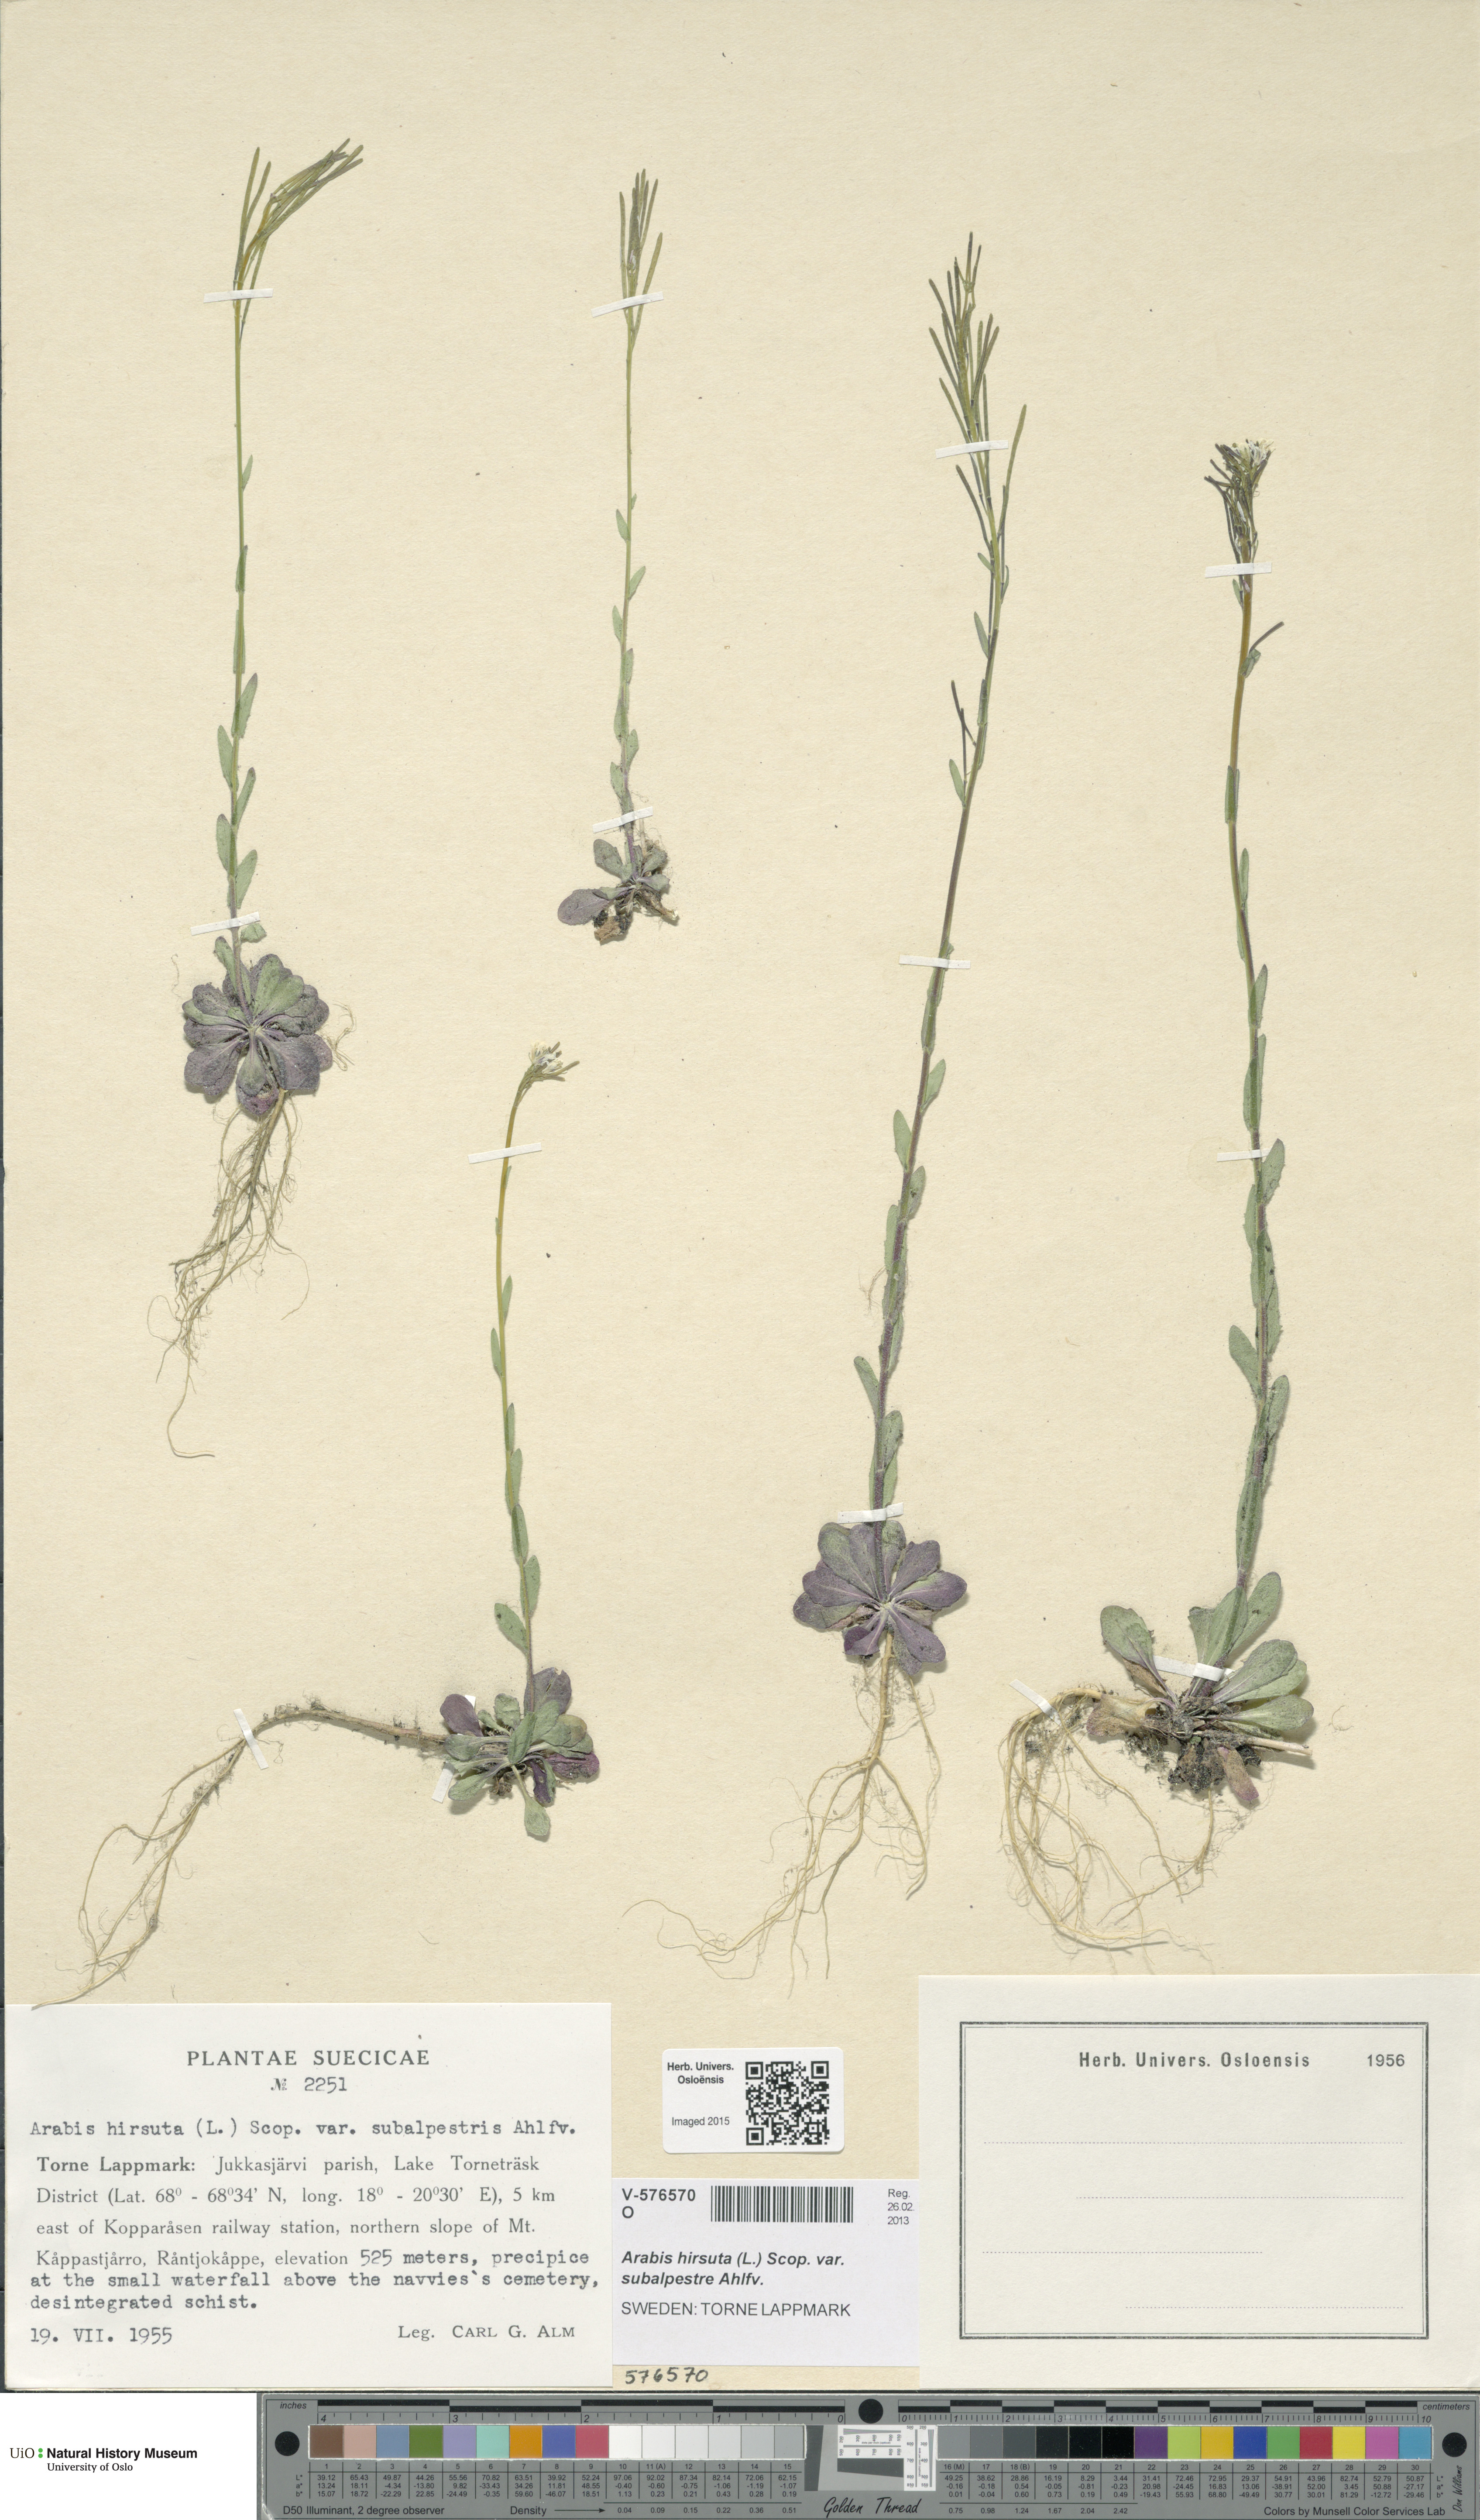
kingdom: Plantae
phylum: Tracheophyta
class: Magnoliopsida
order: Brassicales
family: Brassicaceae
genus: Arabis
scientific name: Arabis hirsuta
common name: Hairy rock-cress
